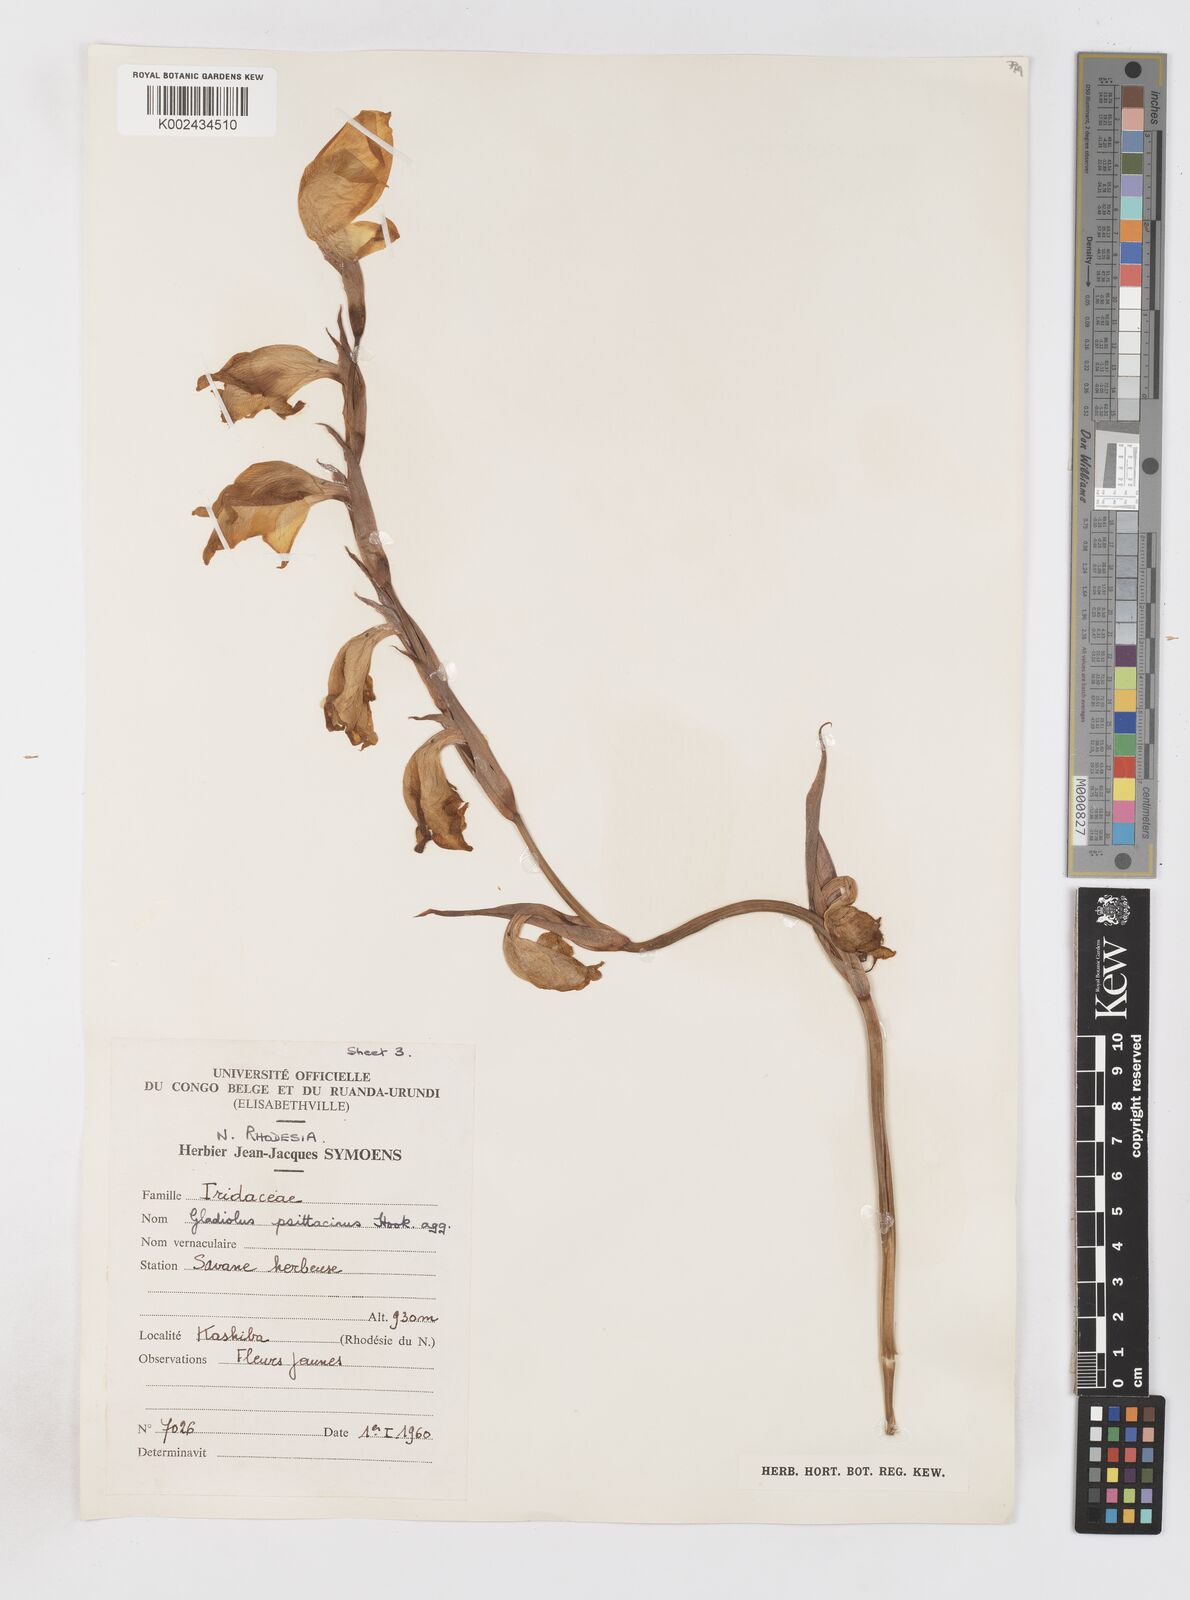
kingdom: Plantae
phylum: Tracheophyta
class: Liliopsida
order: Asparagales
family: Iridaceae
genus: Gladiolus
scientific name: Gladiolus dalenii
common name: Cornflag
